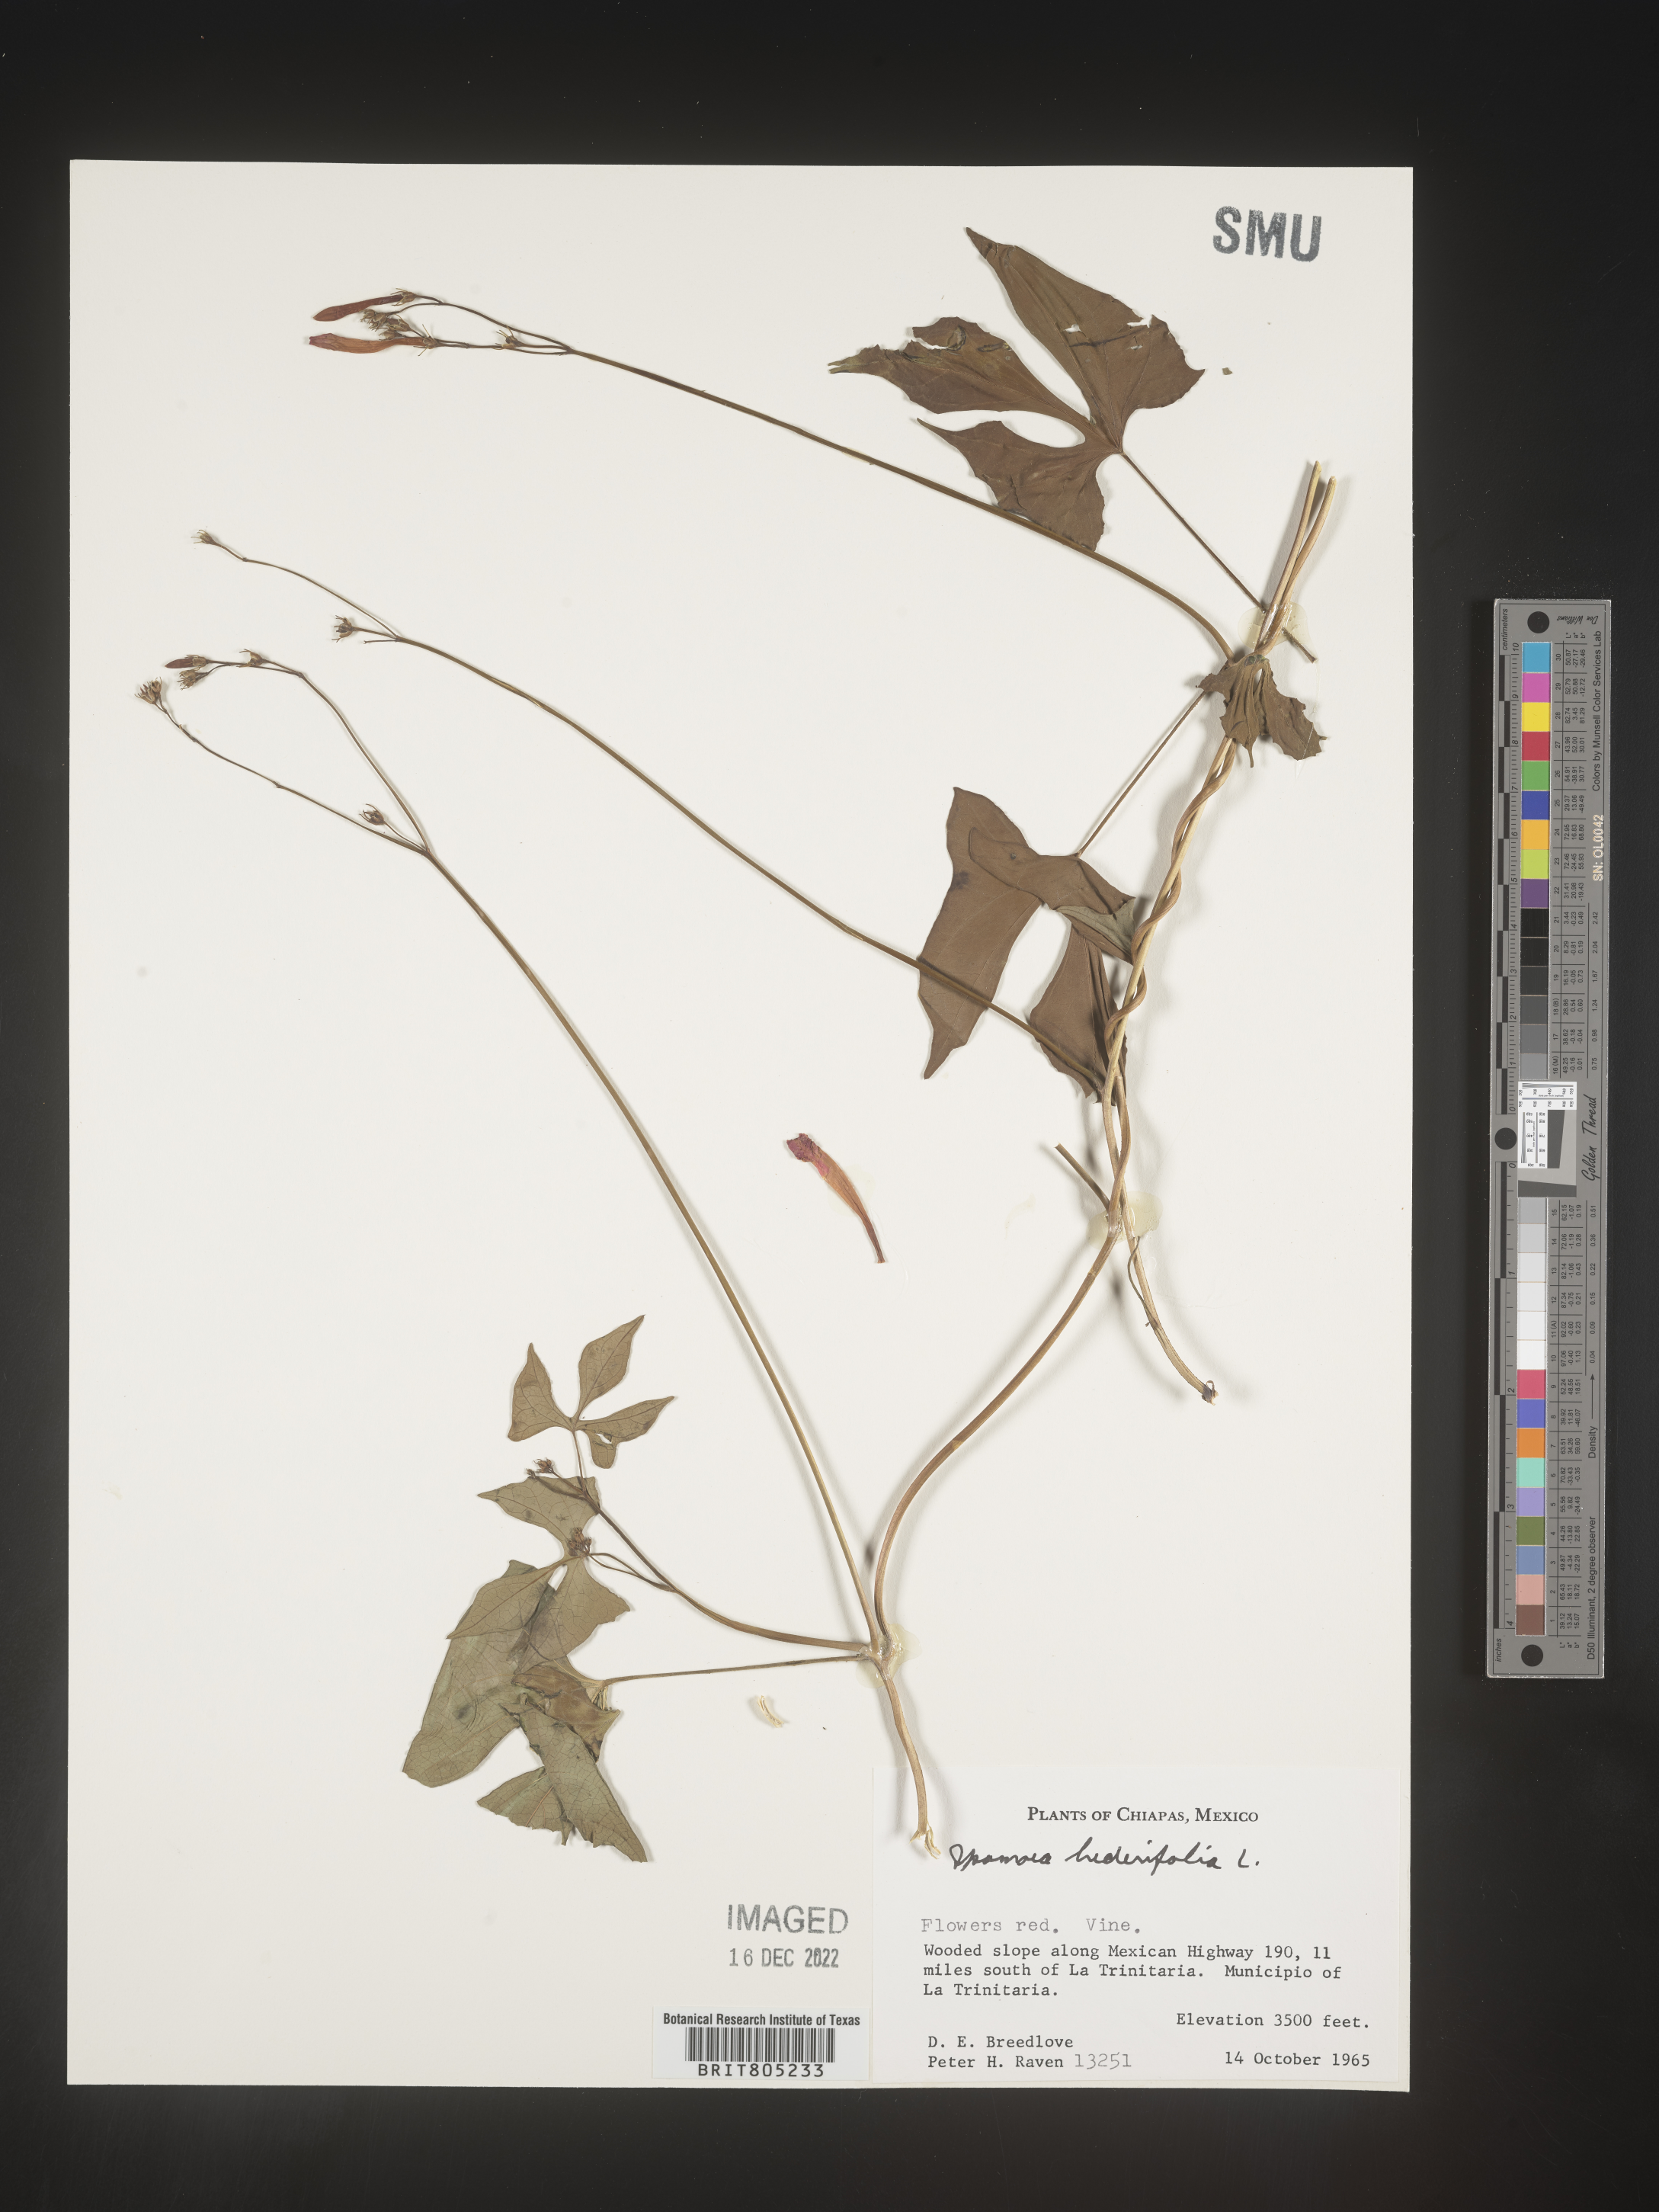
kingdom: Plantae
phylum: Tracheophyta
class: Magnoliopsida
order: Solanales
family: Convolvulaceae
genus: Ipomoea
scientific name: Ipomoea
